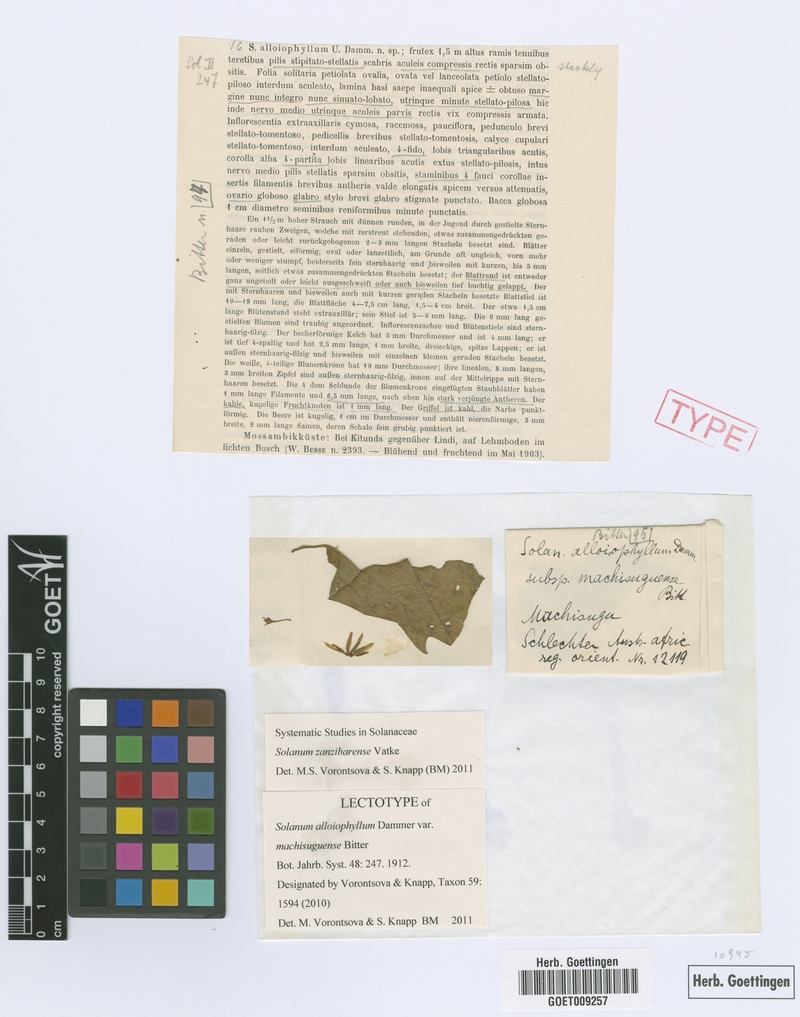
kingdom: Plantae
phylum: Tracheophyta
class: Magnoliopsida
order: Solanales
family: Solanaceae
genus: Solanum
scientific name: Solanum zanzibarense
